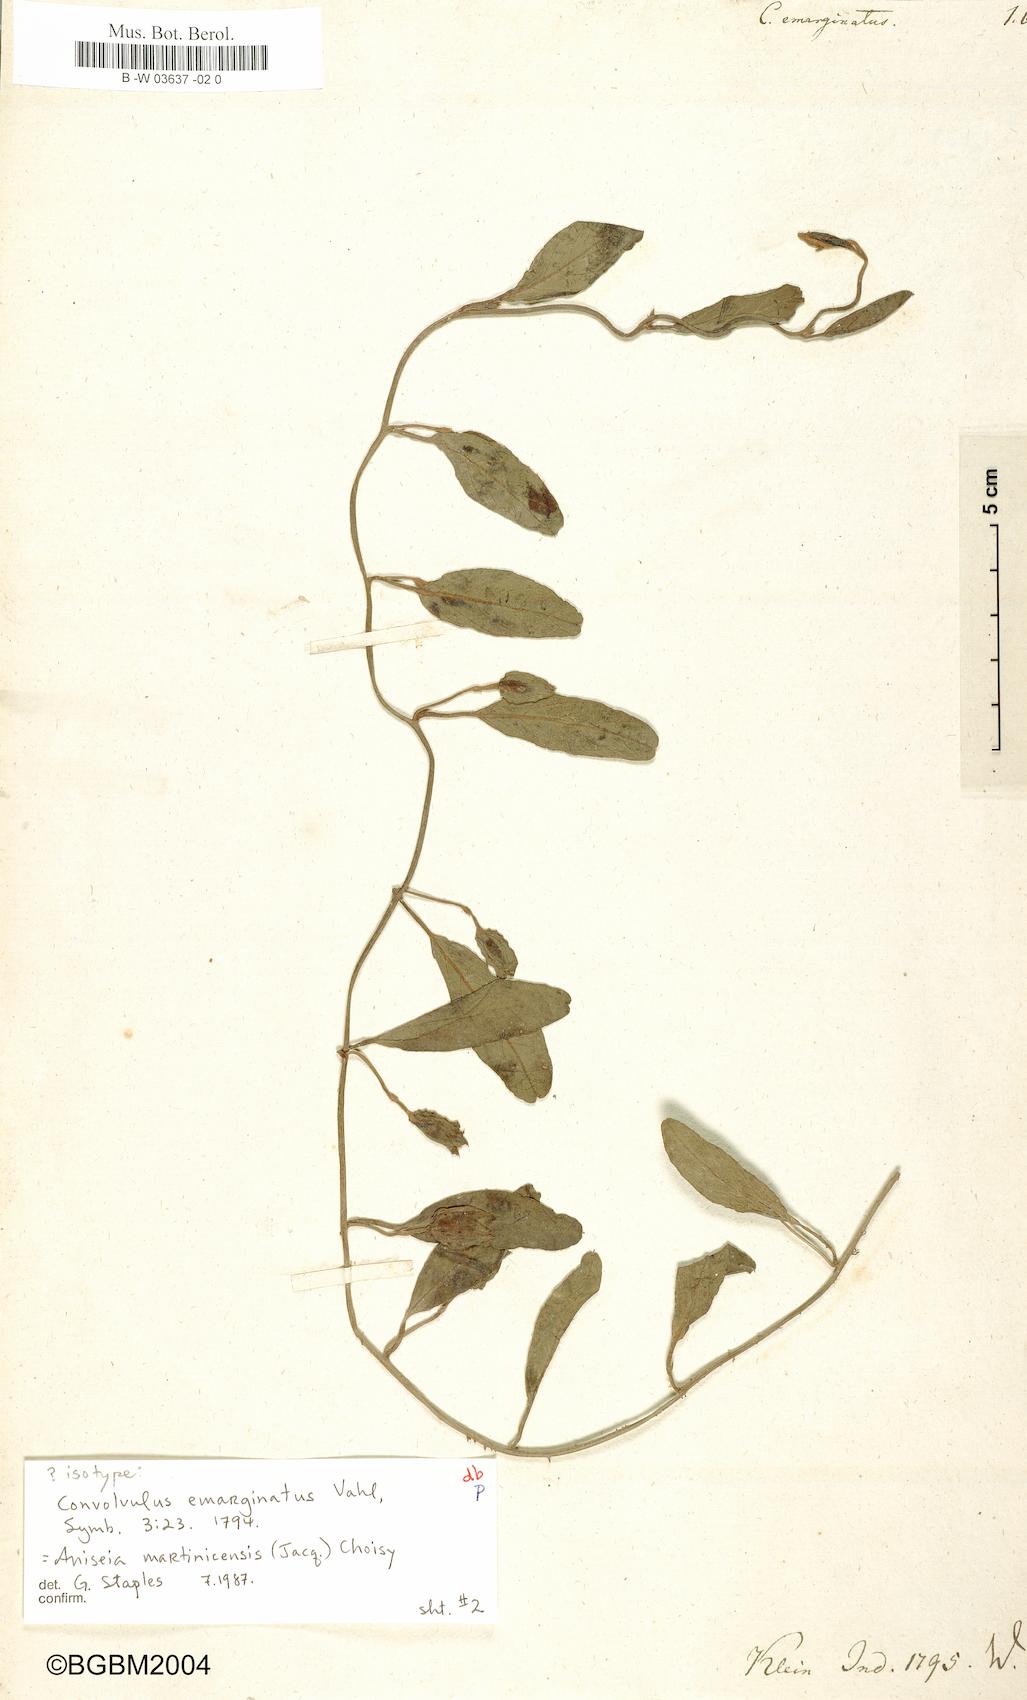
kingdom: Plantae
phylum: Tracheophyta
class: Magnoliopsida
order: Solanales
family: Convolvulaceae
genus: Aniseia
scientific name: Aniseia martinicensis
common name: Kulayadambu
